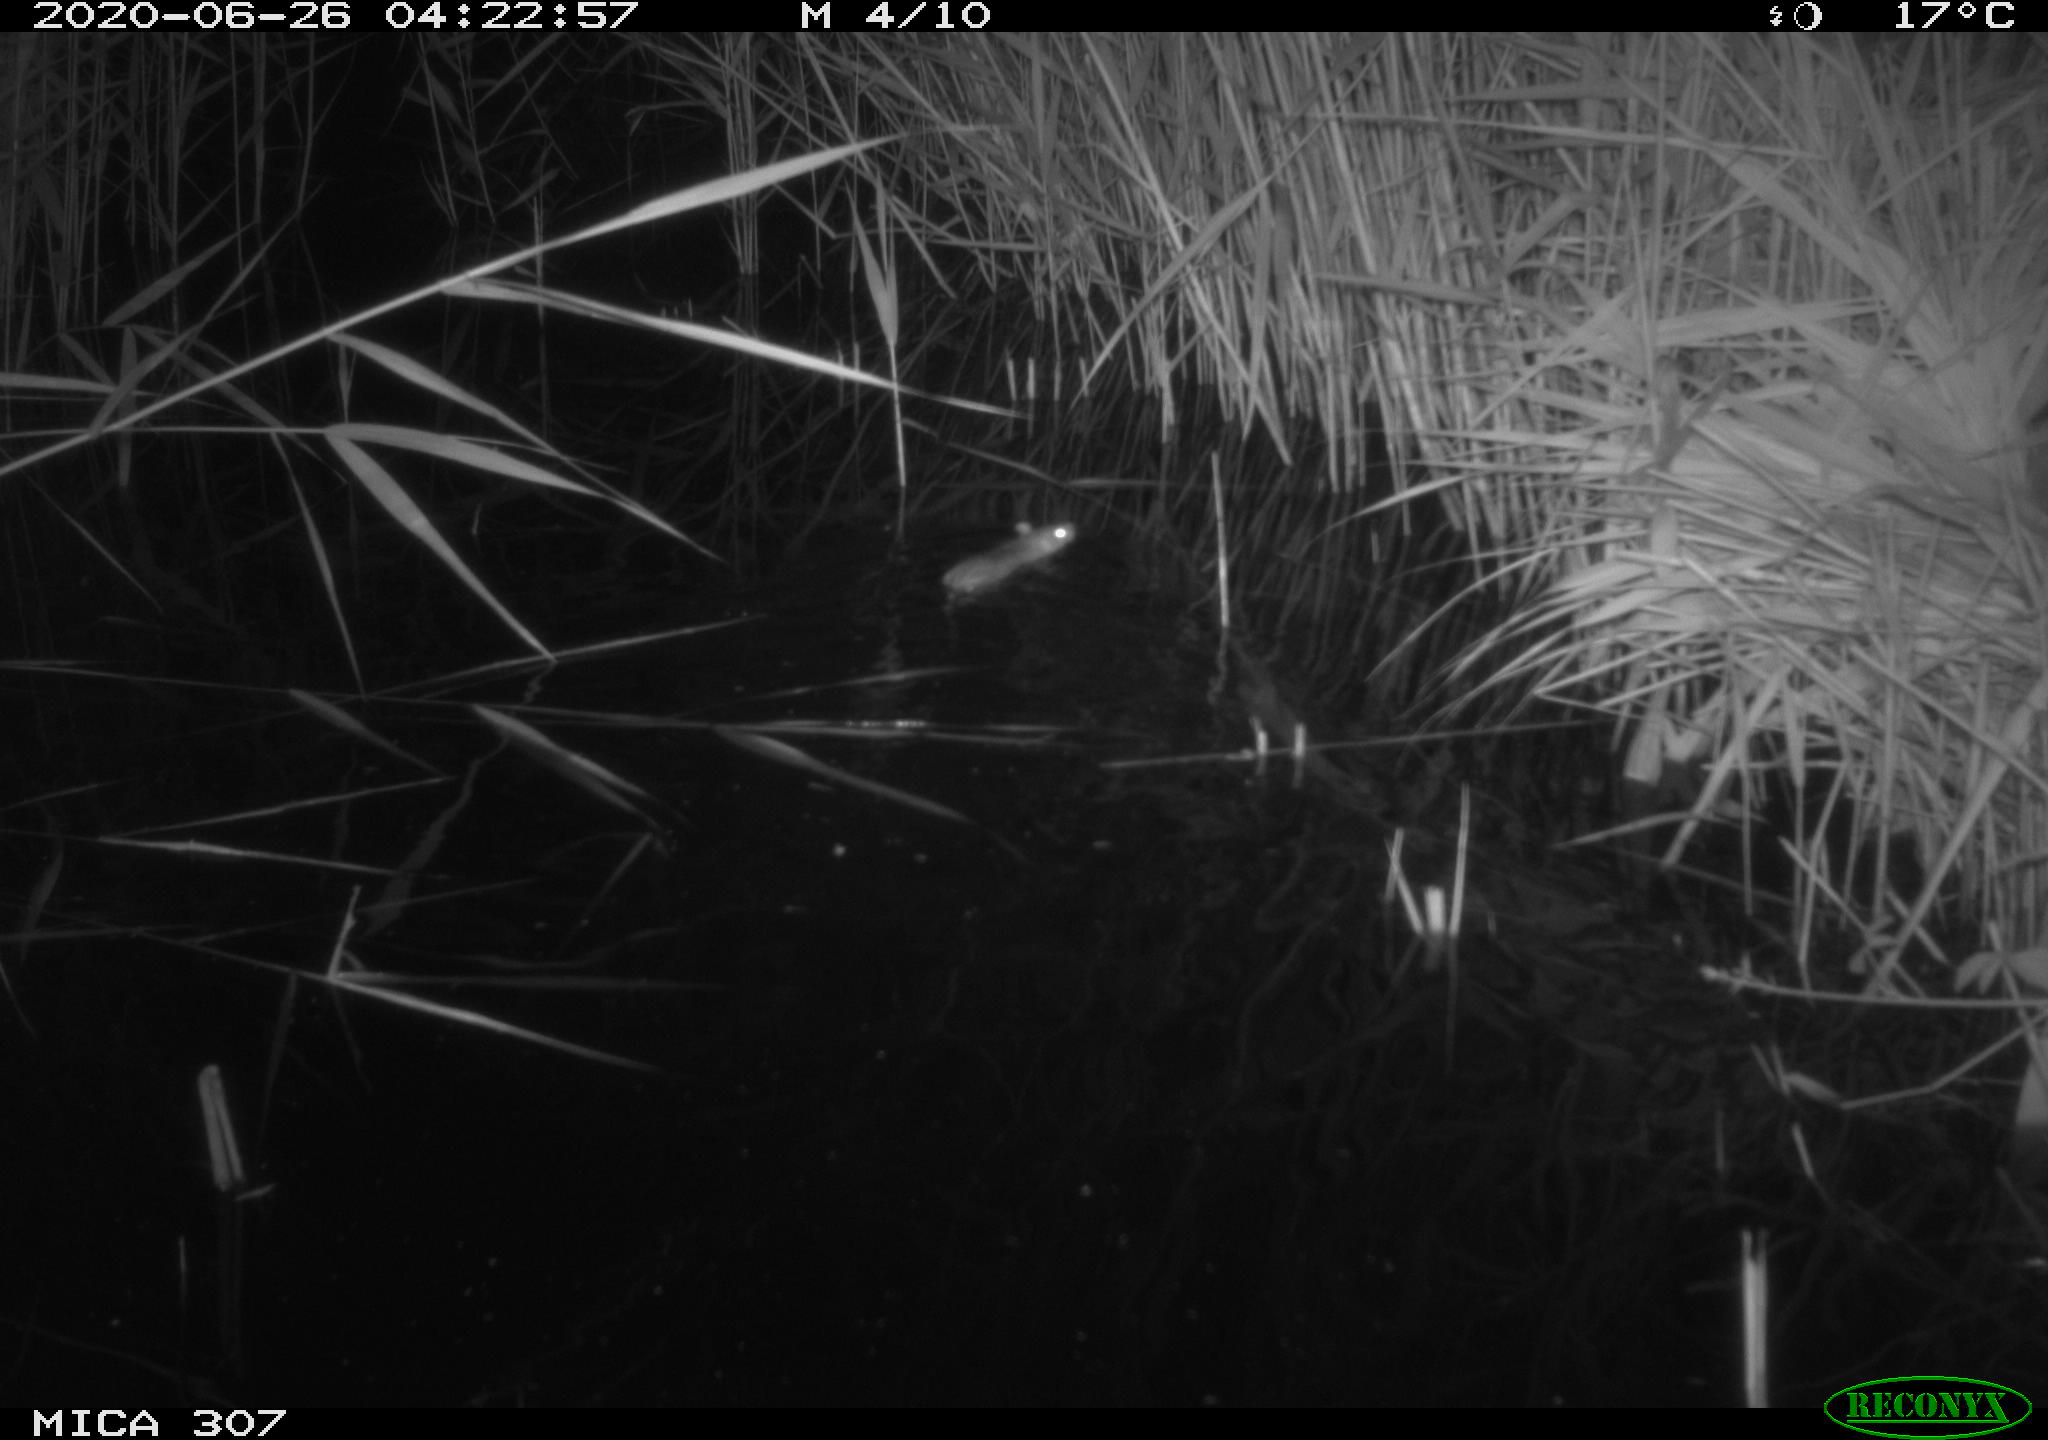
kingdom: Animalia
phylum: Chordata
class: Mammalia
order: Rodentia
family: Muridae
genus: Rattus
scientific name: Rattus norvegicus
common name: Brown rat
